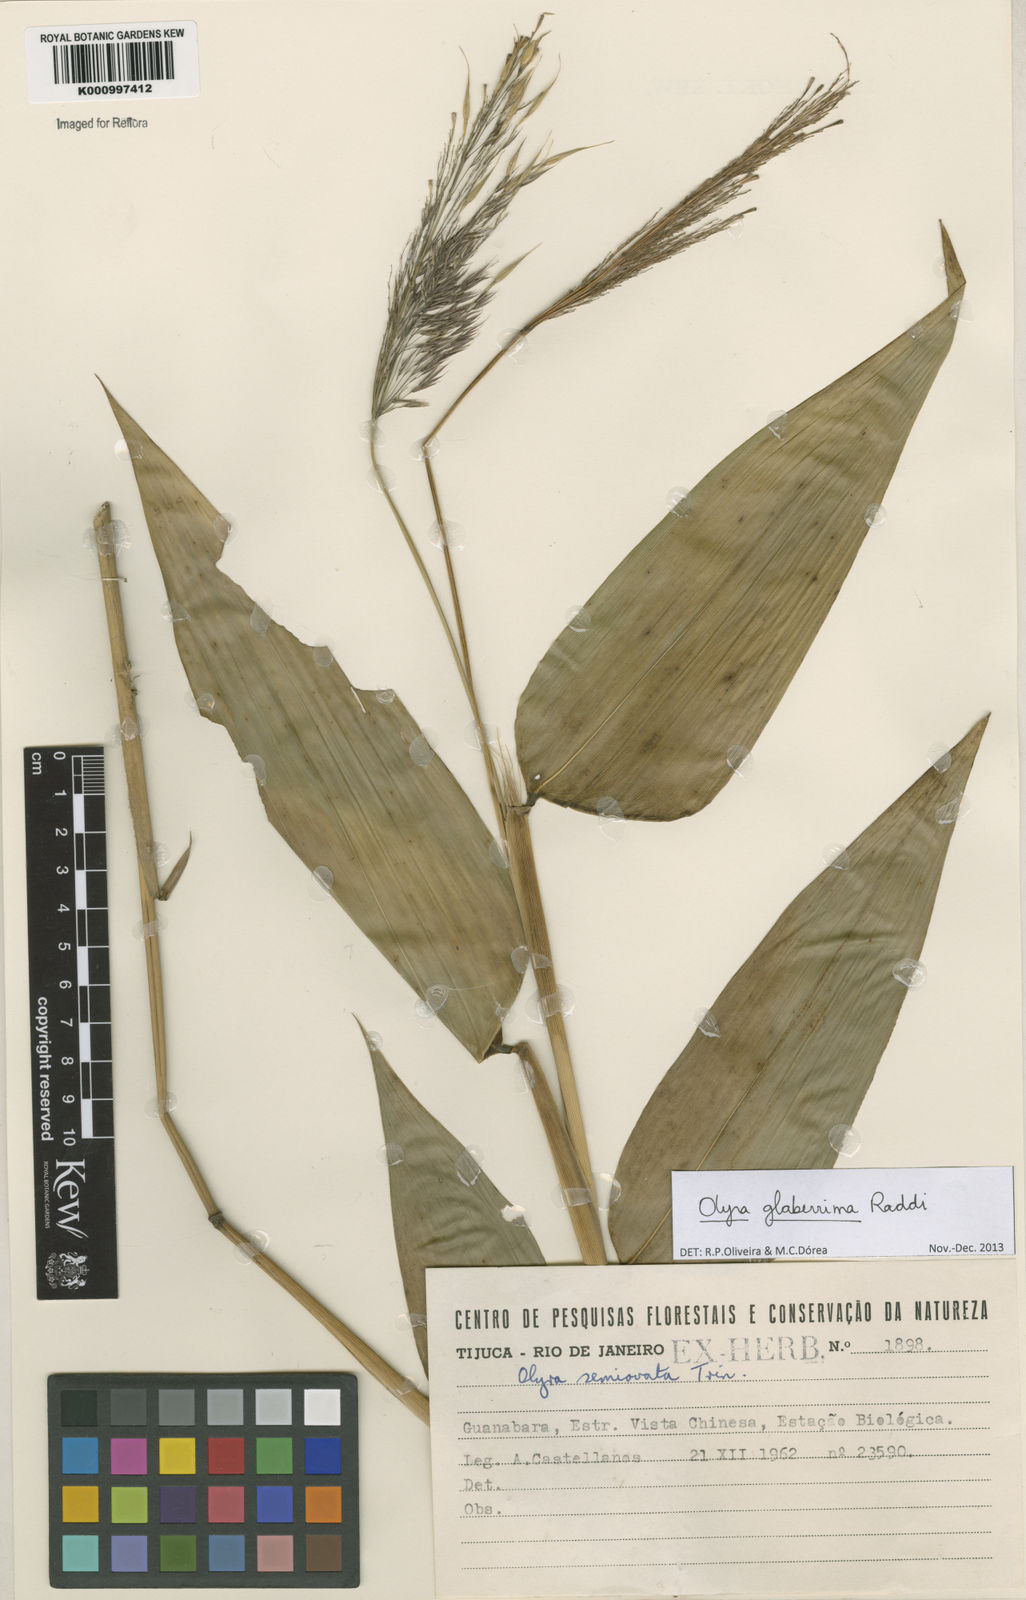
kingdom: Plantae
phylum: Tracheophyta
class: Liliopsida
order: Poales
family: Poaceae
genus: Olyra
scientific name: Olyra glaberrima
